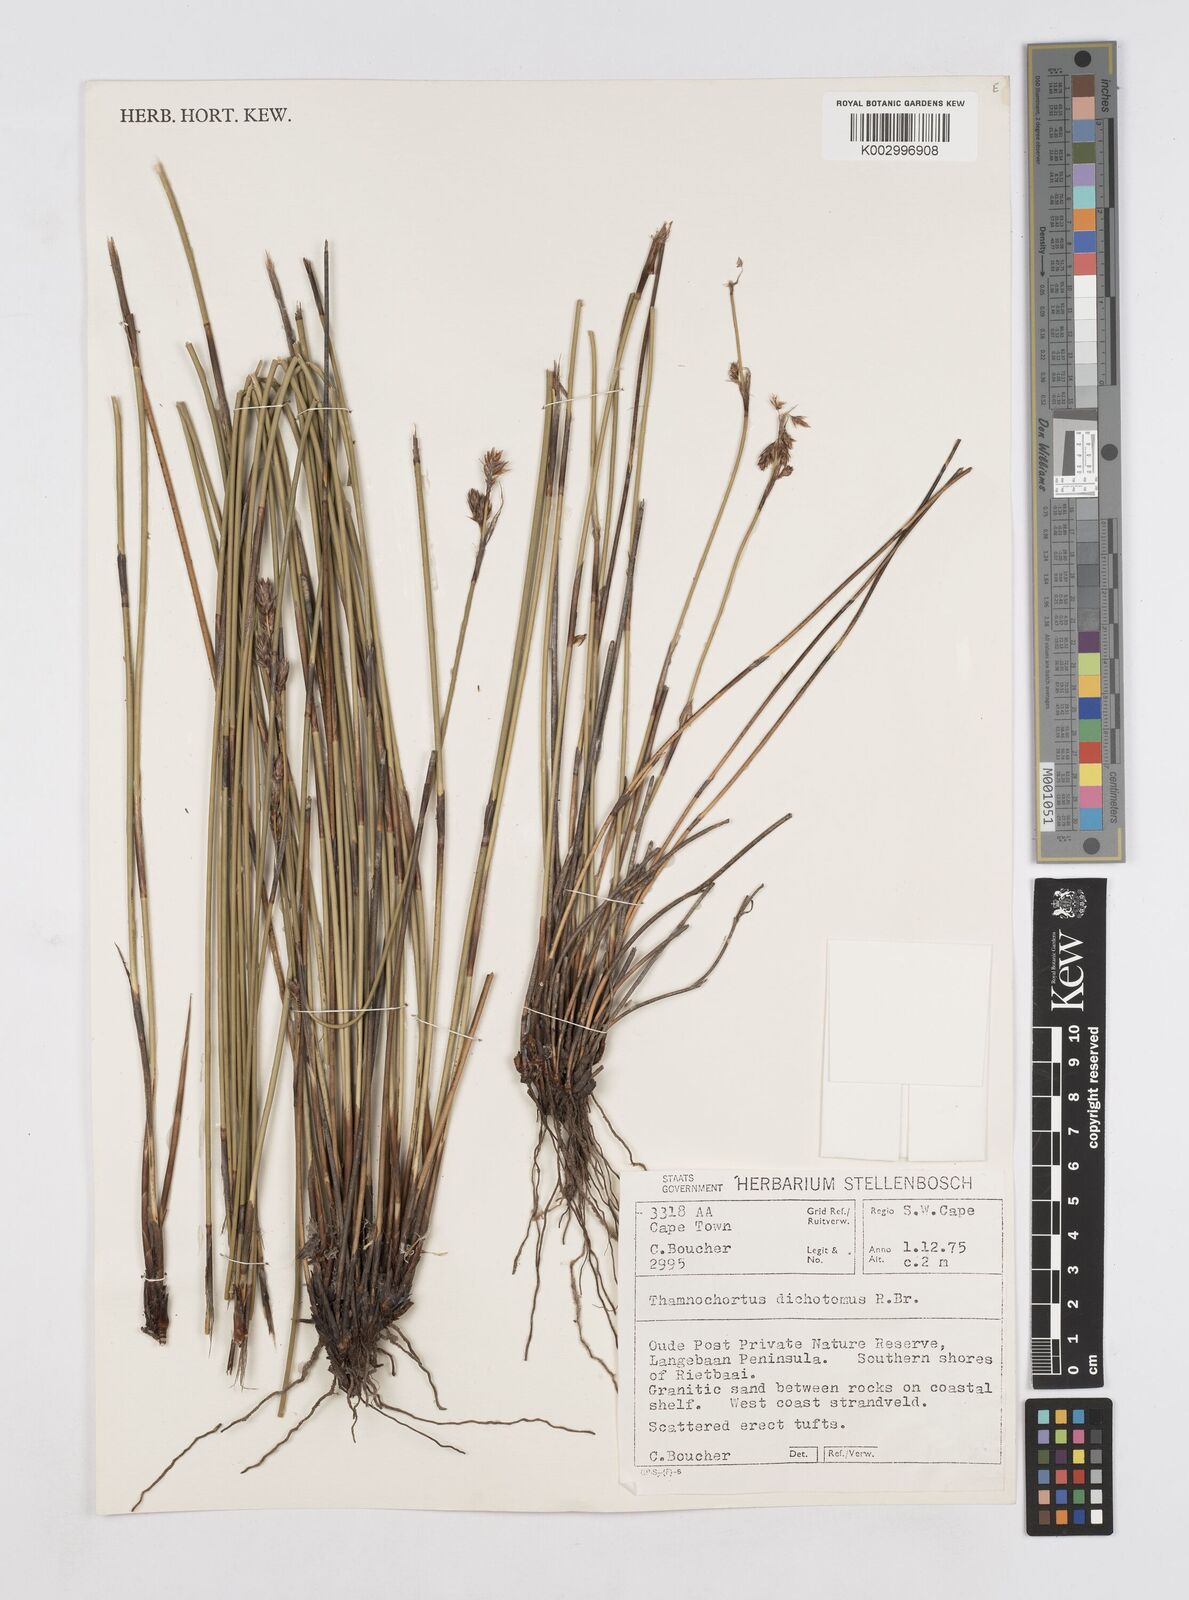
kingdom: Plantae
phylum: Tracheophyta
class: Liliopsida
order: Poales
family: Restionaceae
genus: Thamnochortus
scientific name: Thamnochortus lucens
